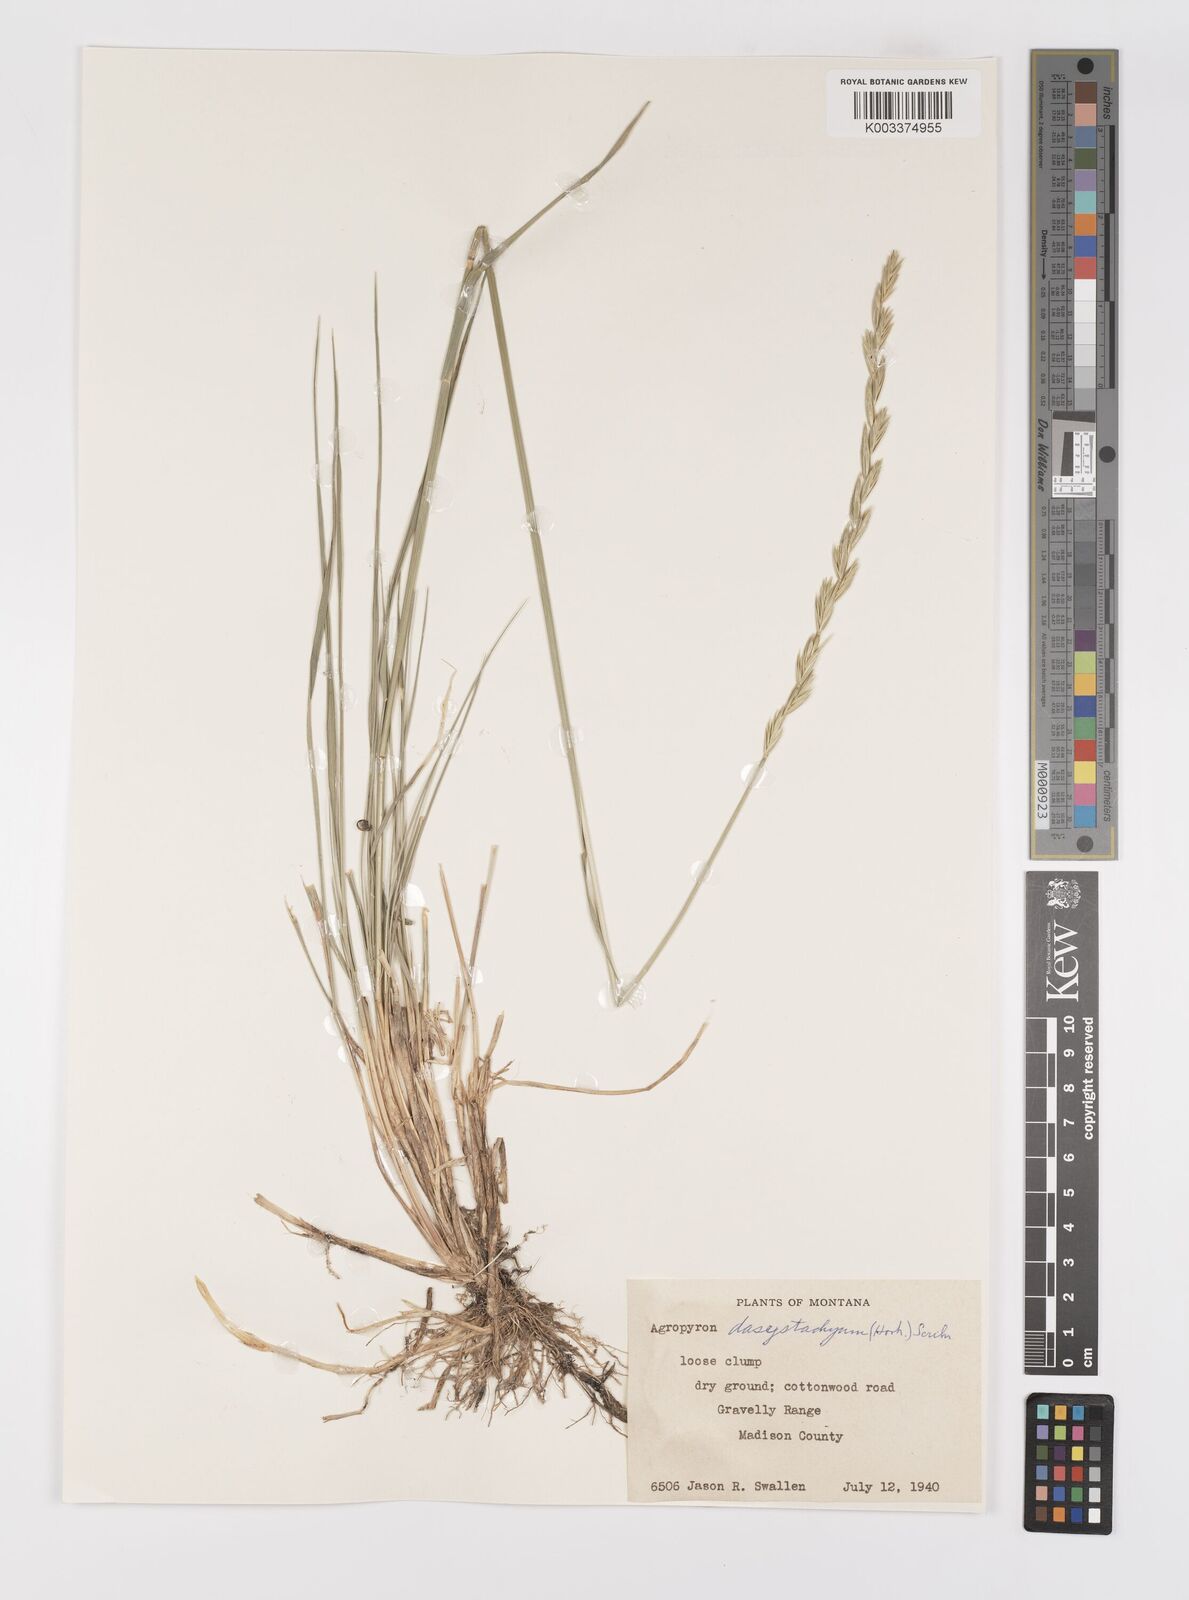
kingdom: Plantae
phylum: Tracheophyta
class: Liliopsida
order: Poales
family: Poaceae
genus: Elymus
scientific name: Elymus lanceolatus
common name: Thick-spike wheatgrass
